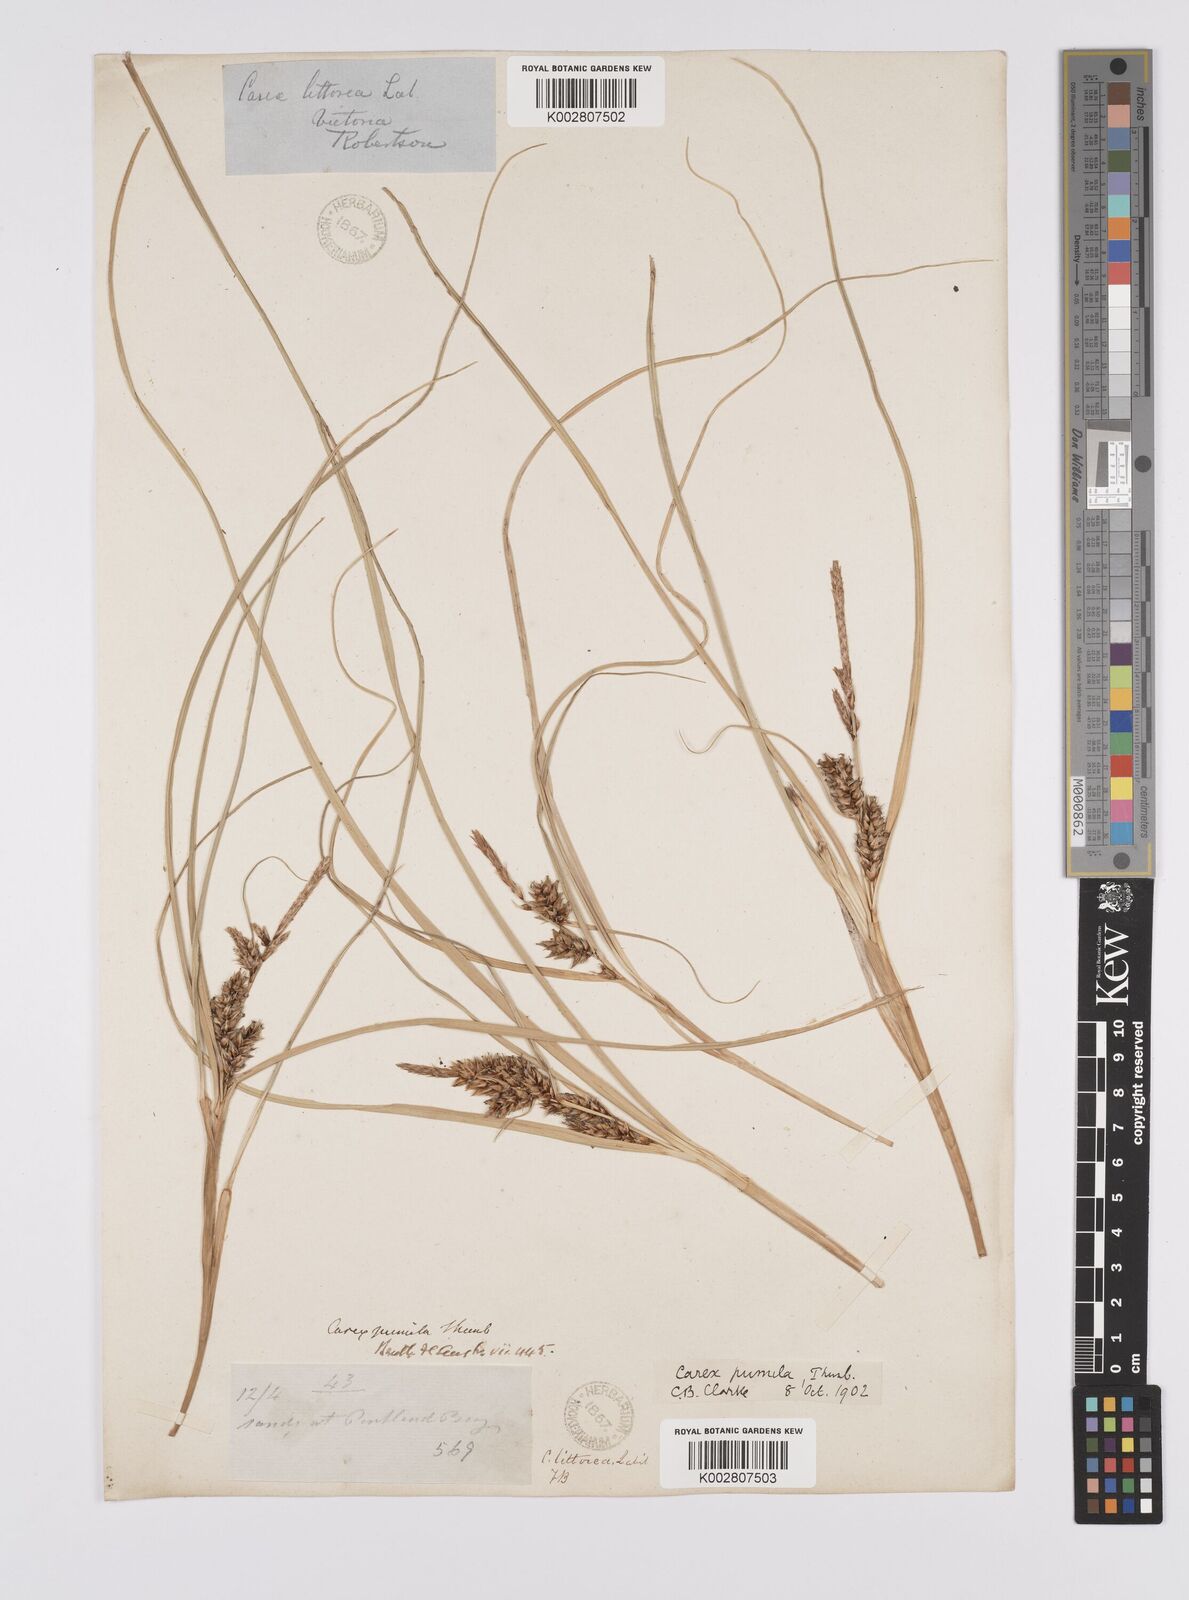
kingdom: Plantae
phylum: Tracheophyta
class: Liliopsida
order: Poales
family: Cyperaceae
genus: Carex
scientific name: Carex pumila
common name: Dwarf sedge
